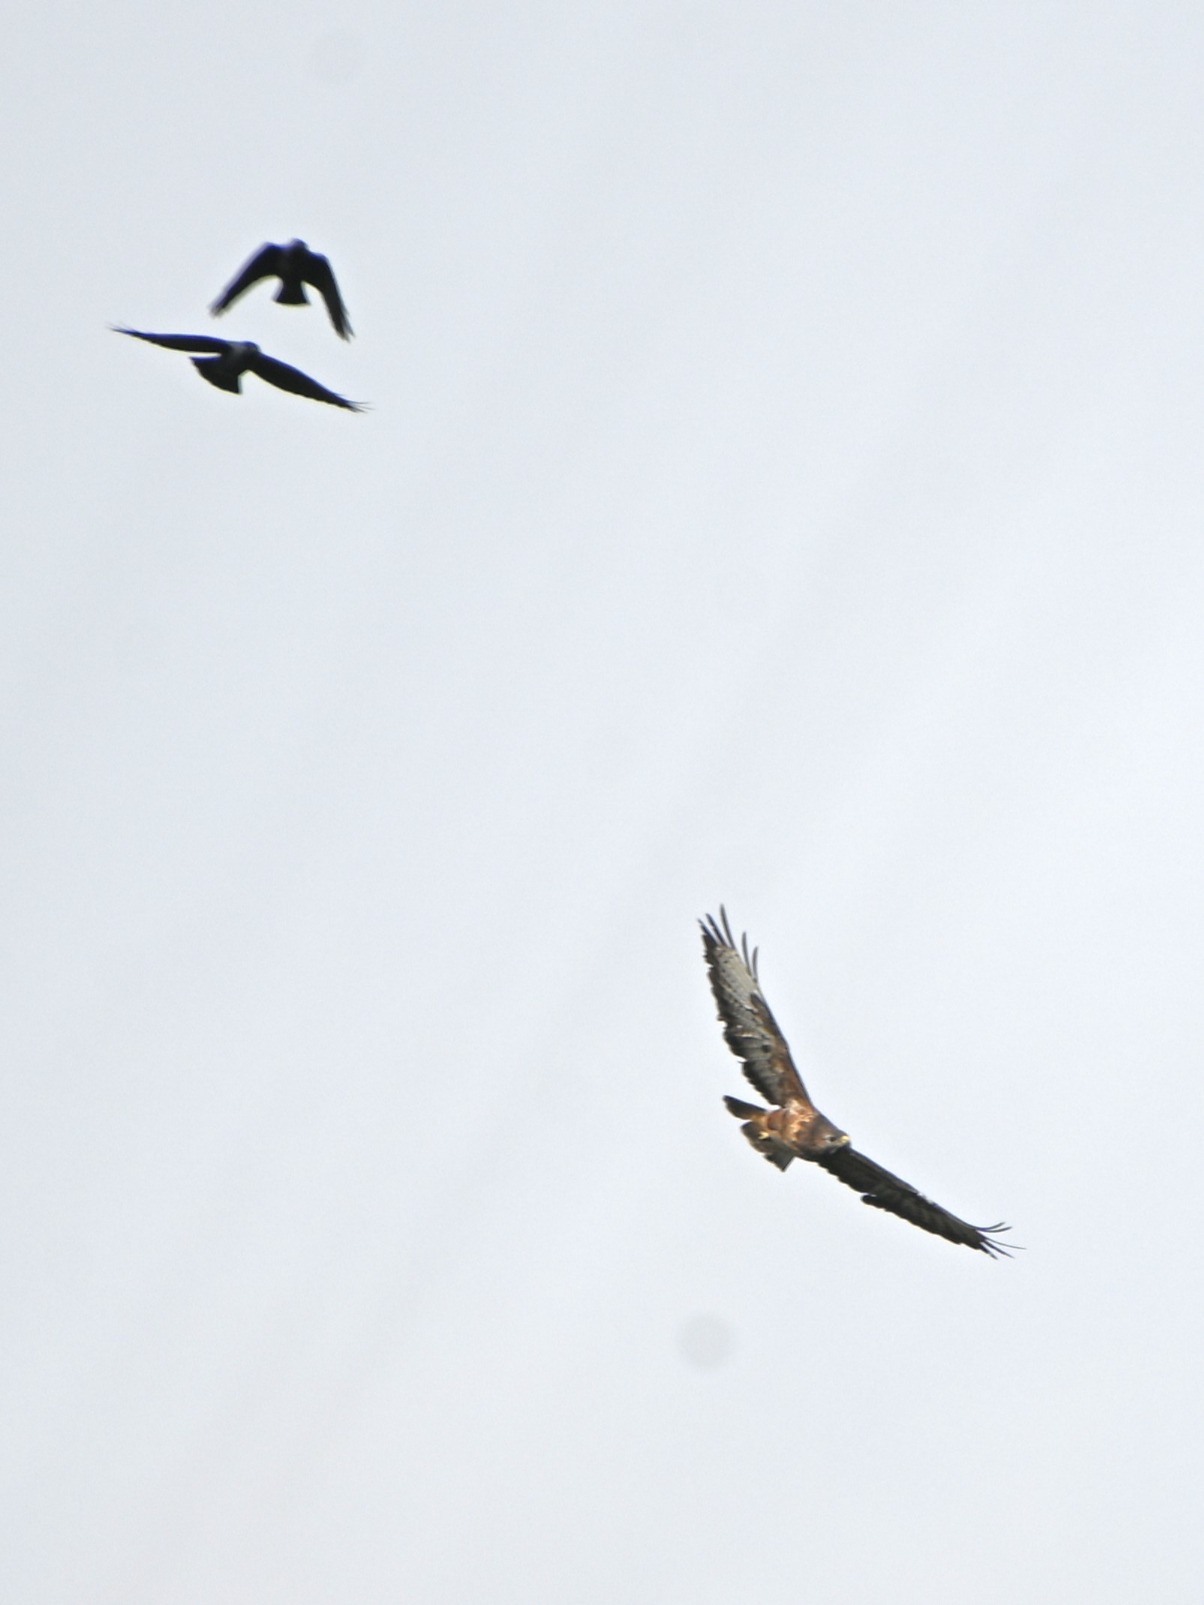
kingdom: Animalia
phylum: Chordata
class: Aves
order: Accipitriformes
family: Accipitridae
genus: Buteo
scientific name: Buteo buteo
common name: Musvåge
